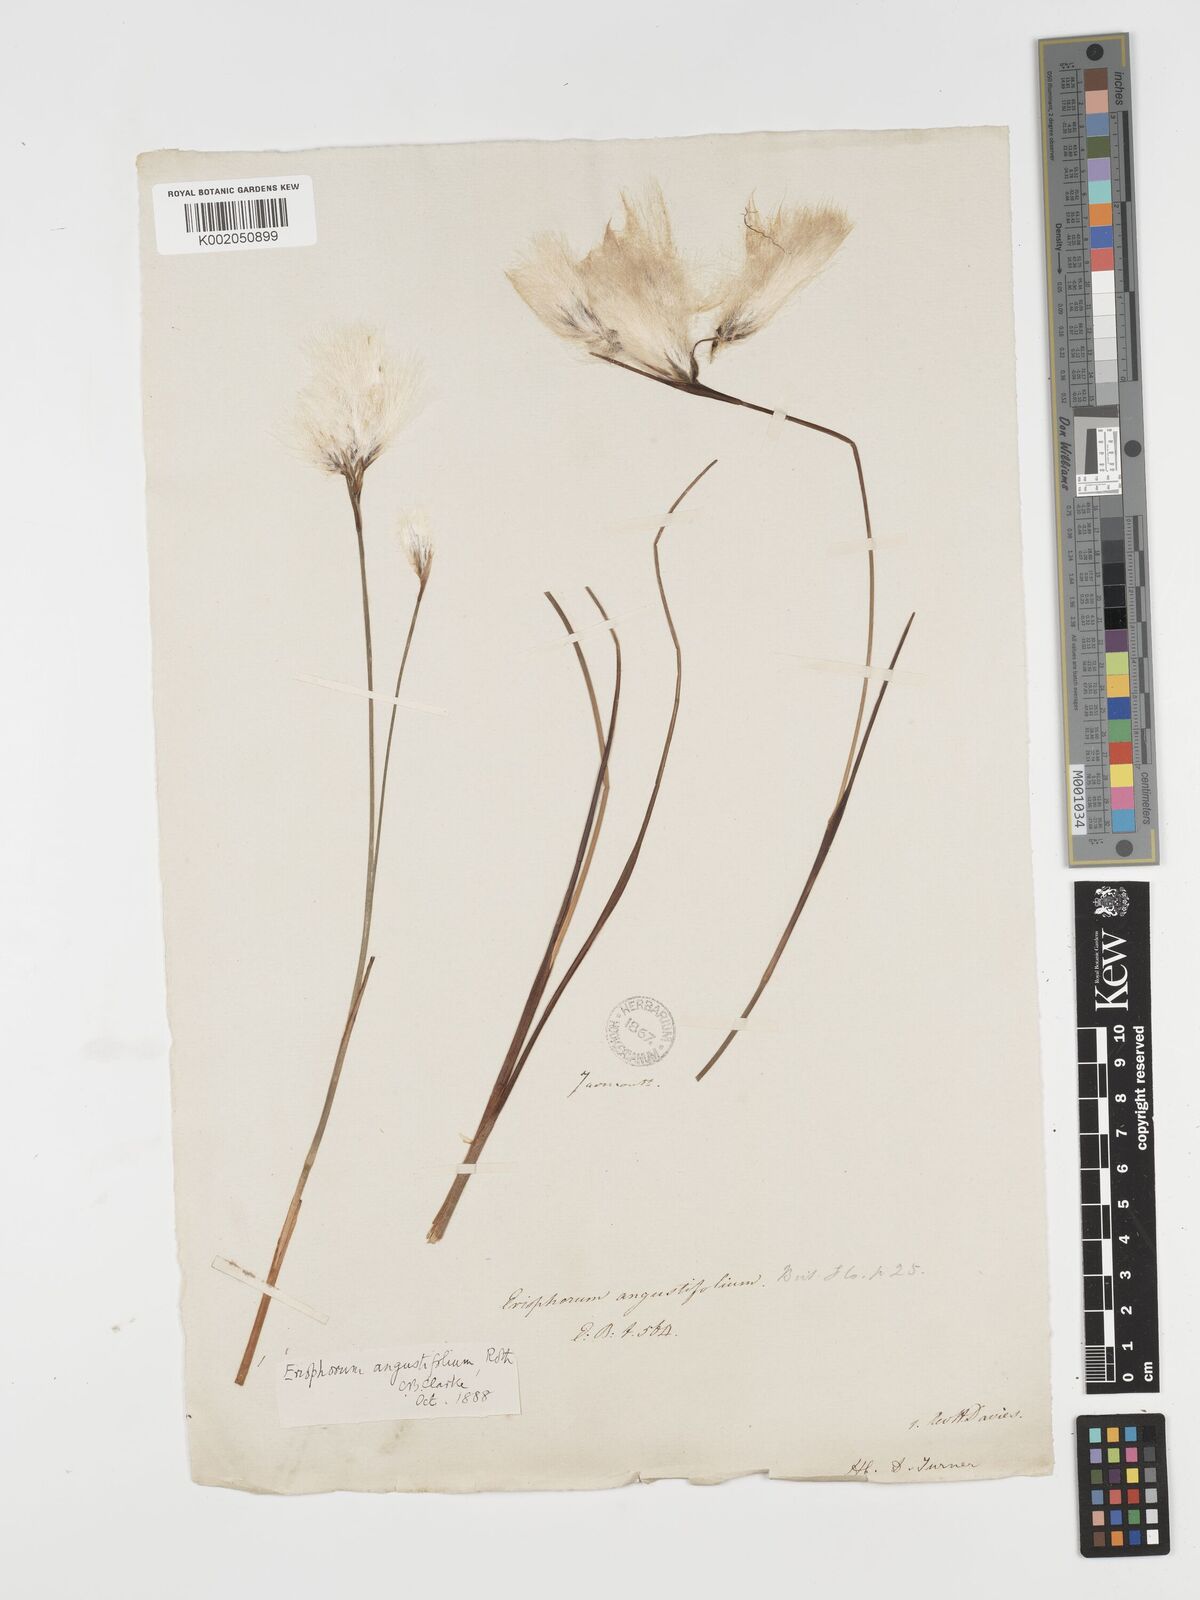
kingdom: Plantae
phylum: Tracheophyta
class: Liliopsida
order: Poales
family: Cyperaceae
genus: Eriophorum
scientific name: Eriophorum angustifolium
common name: Common cottongrass
